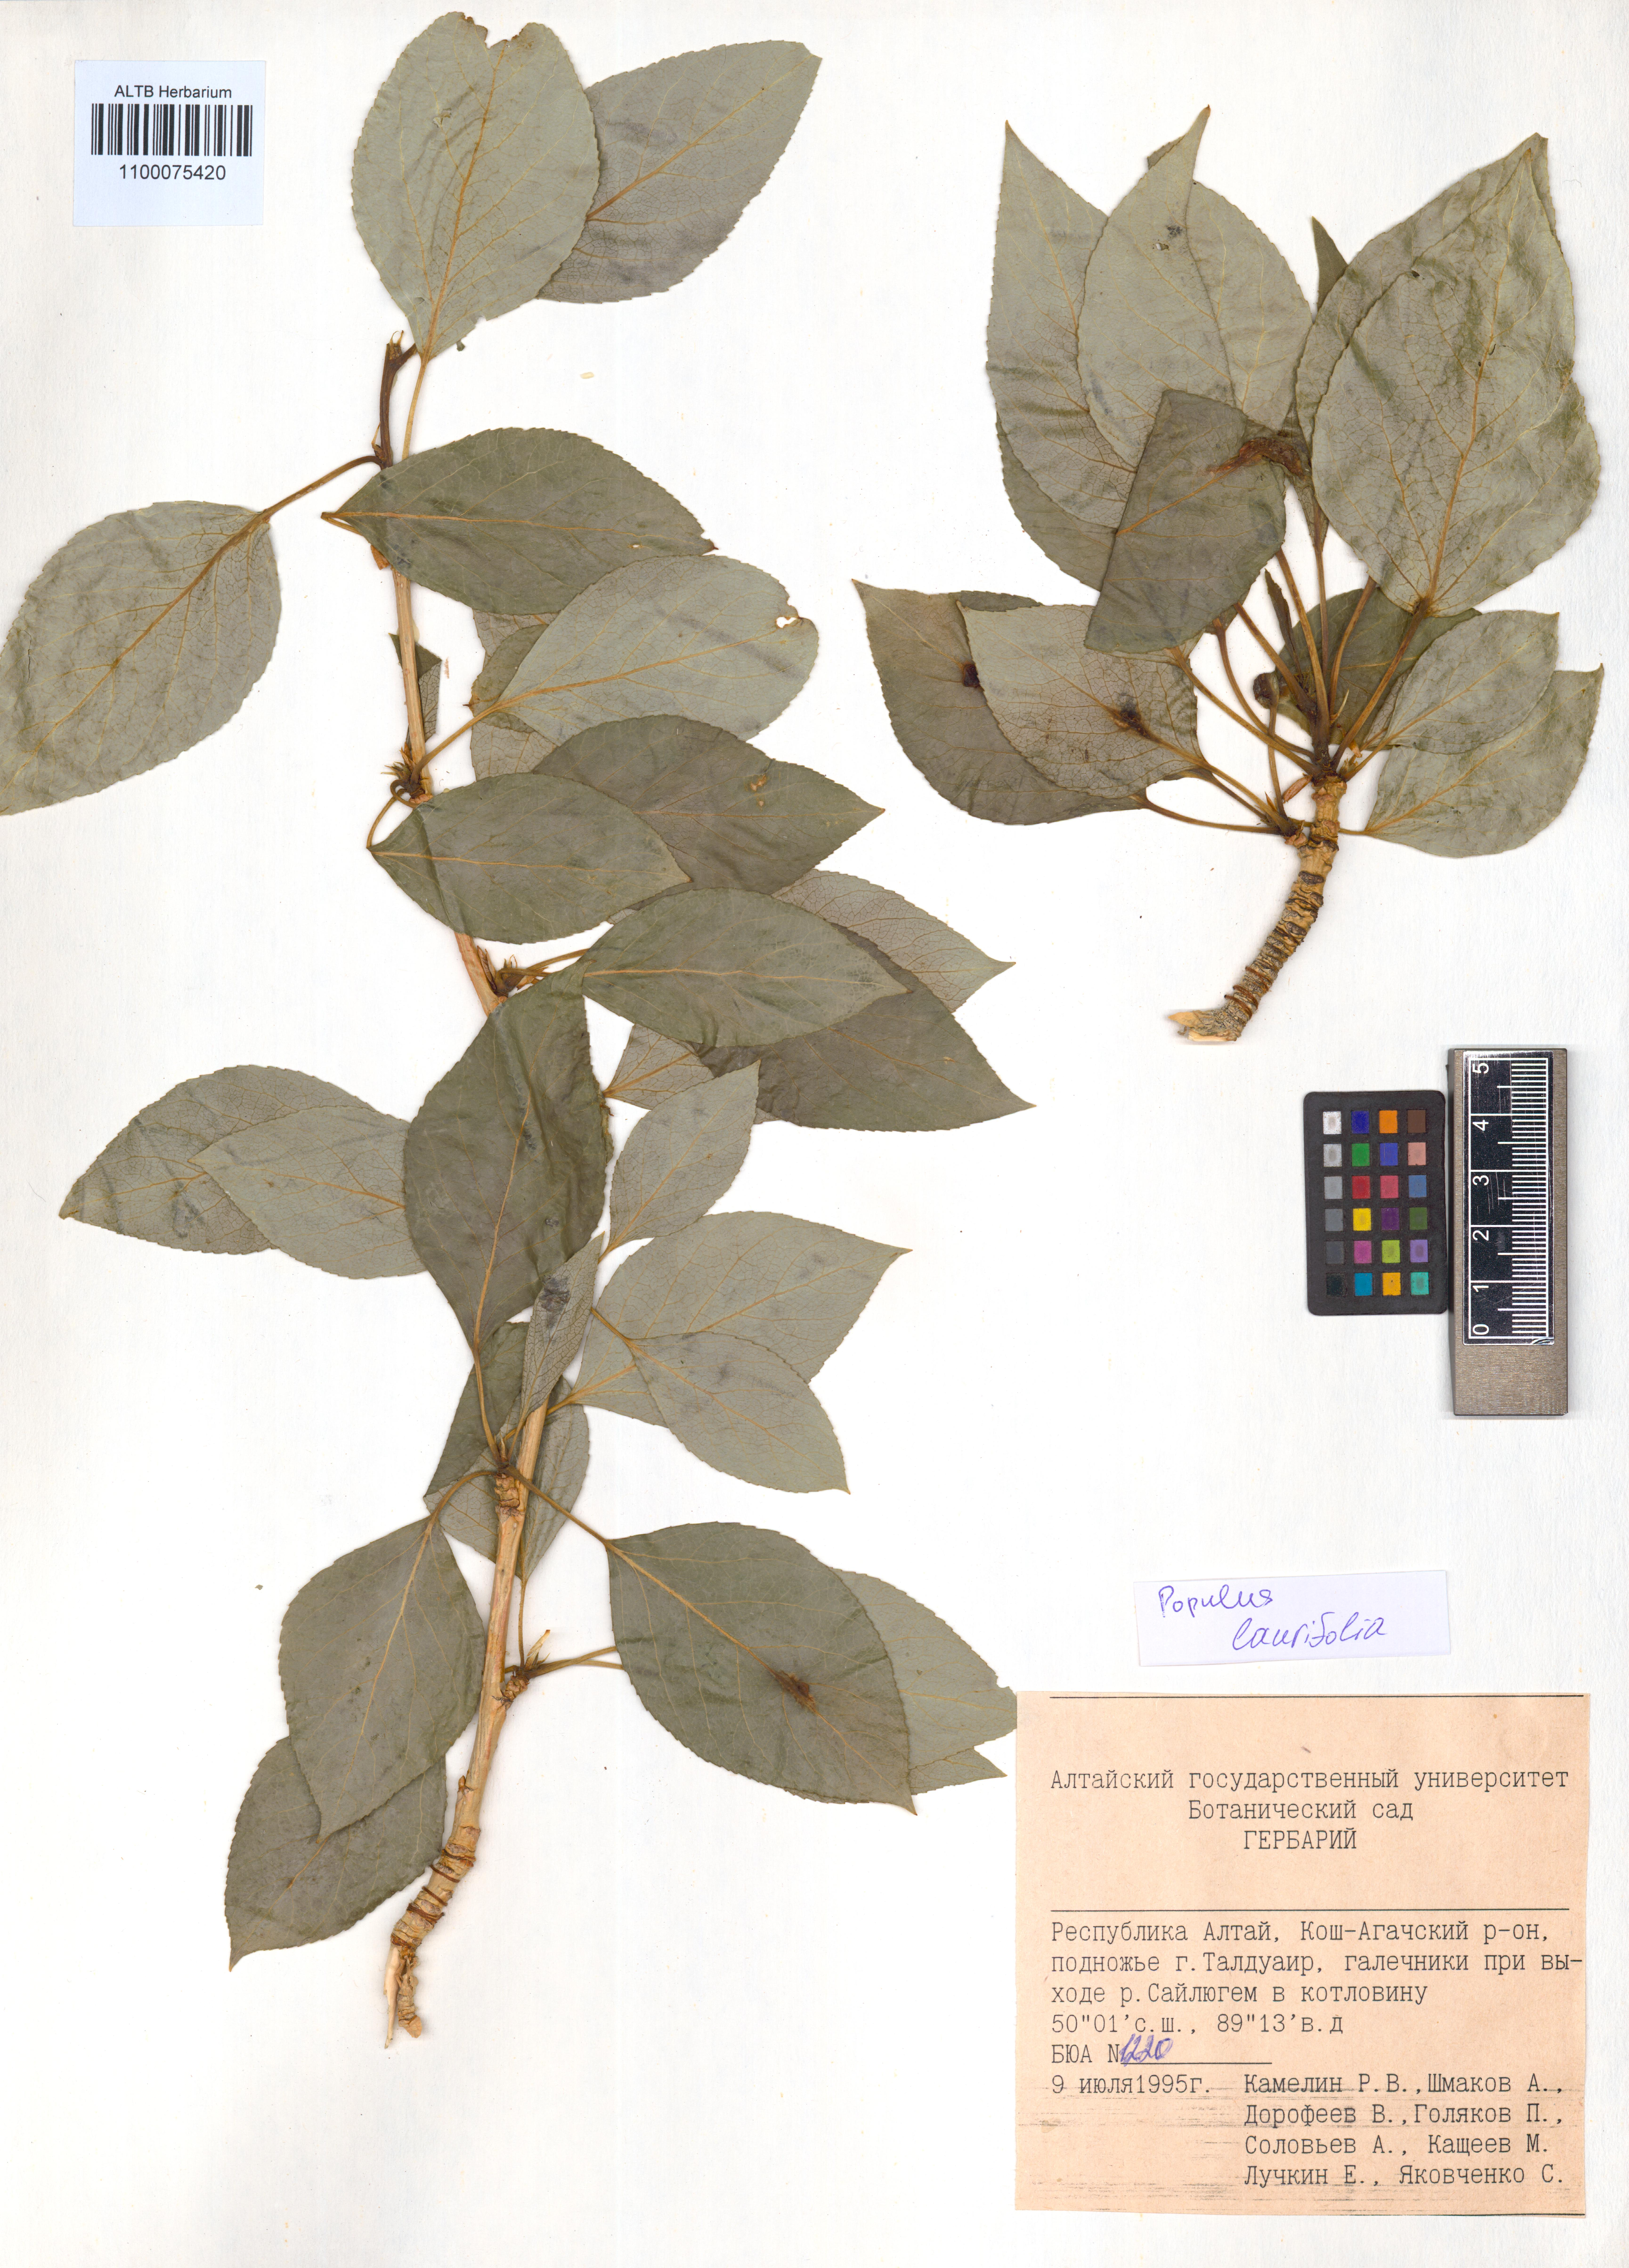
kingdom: Plantae
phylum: Tracheophyta
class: Magnoliopsida
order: Malpighiales
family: Salicaceae
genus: Populus
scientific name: Populus laurifolia
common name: Laurel-leaf poplar
